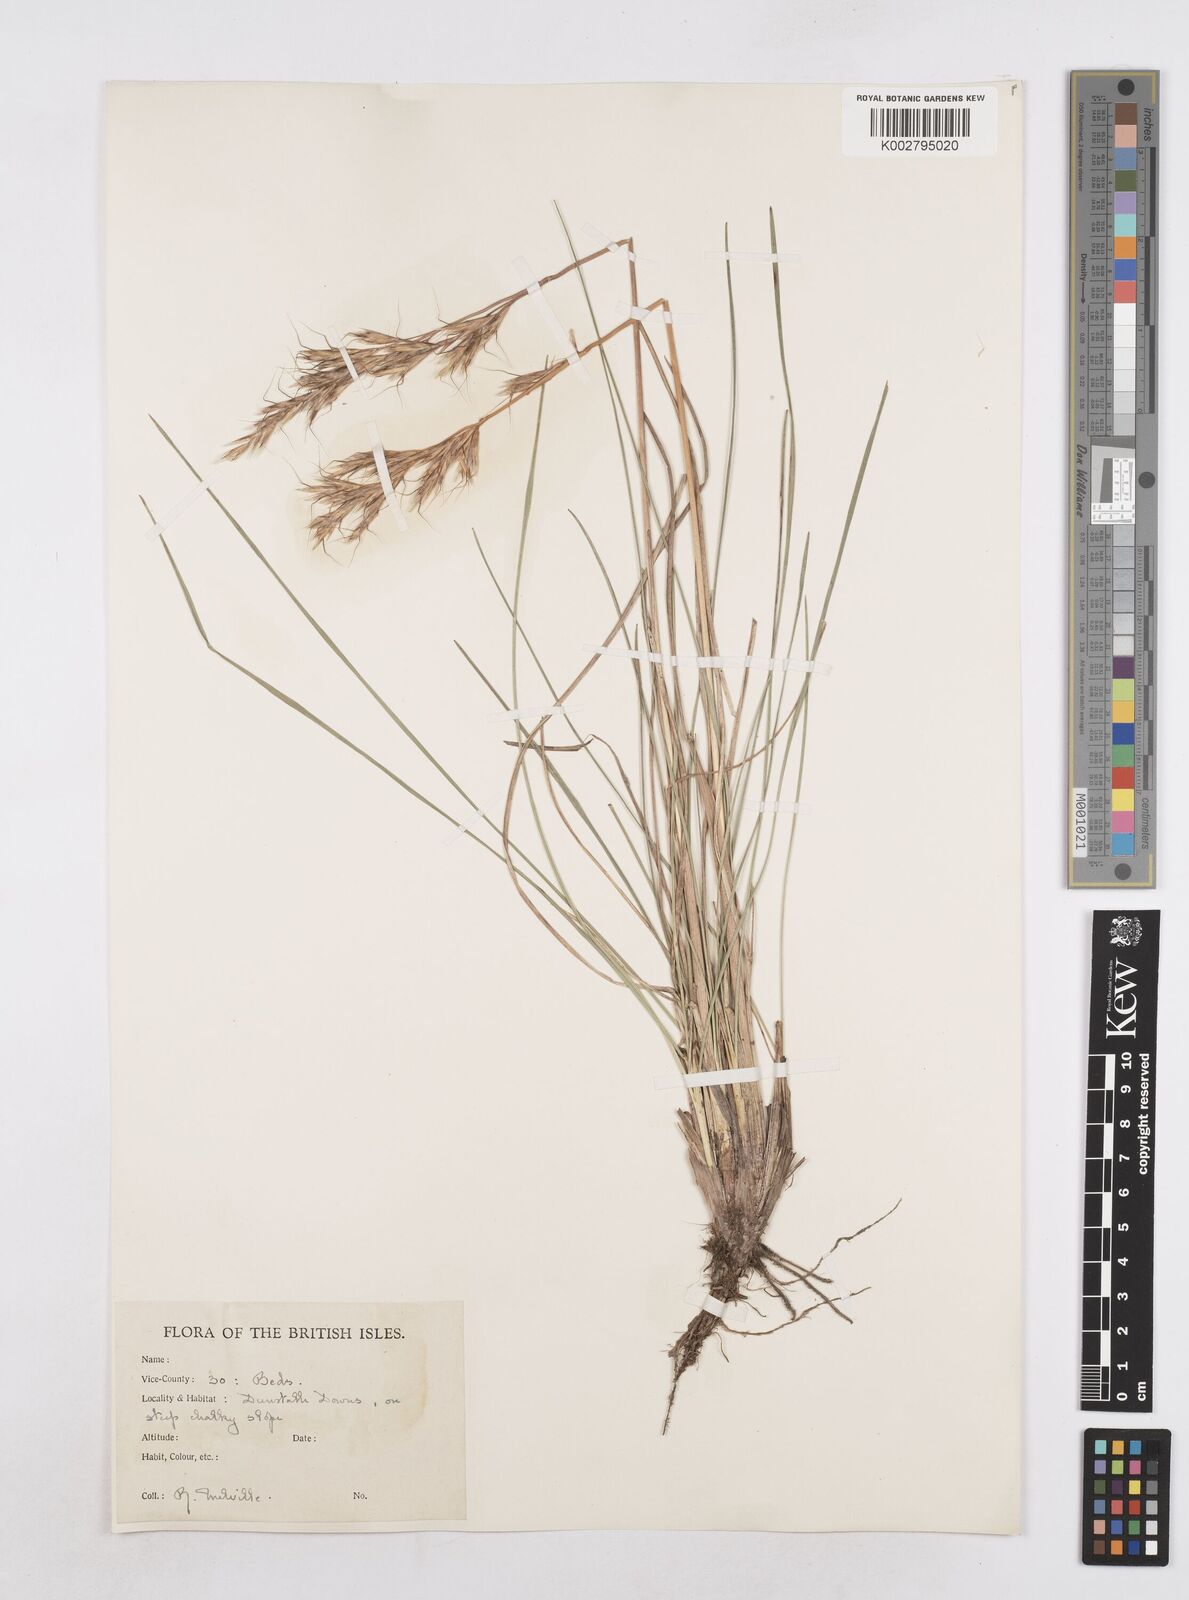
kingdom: Plantae
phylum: Tracheophyta
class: Liliopsida
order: Poales
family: Poaceae
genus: Helictochloa
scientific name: Helictochloa pratensis
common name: Meadow oat grass
